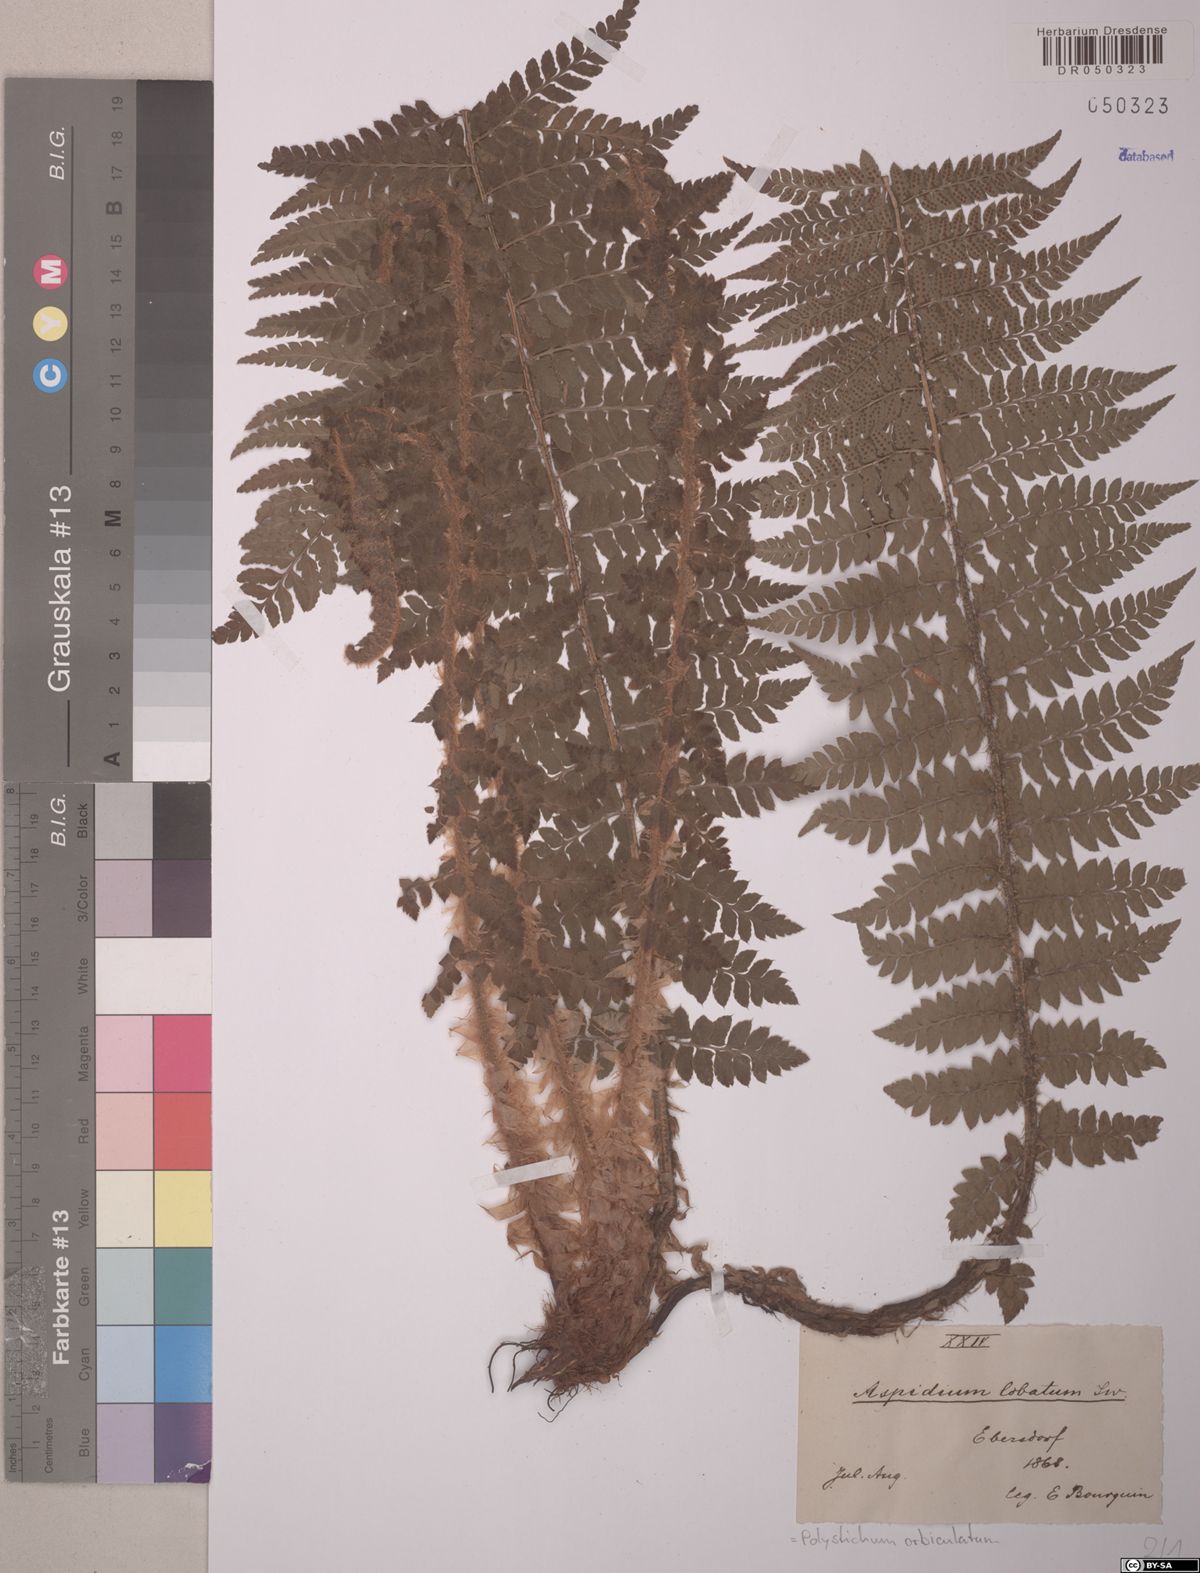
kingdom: Plantae
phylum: Tracheophyta
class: Polypodiopsida
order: Polypodiales
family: Dryopteridaceae
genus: Polystichum
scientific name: Polystichum aculeatum
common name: Hard shield-fern
